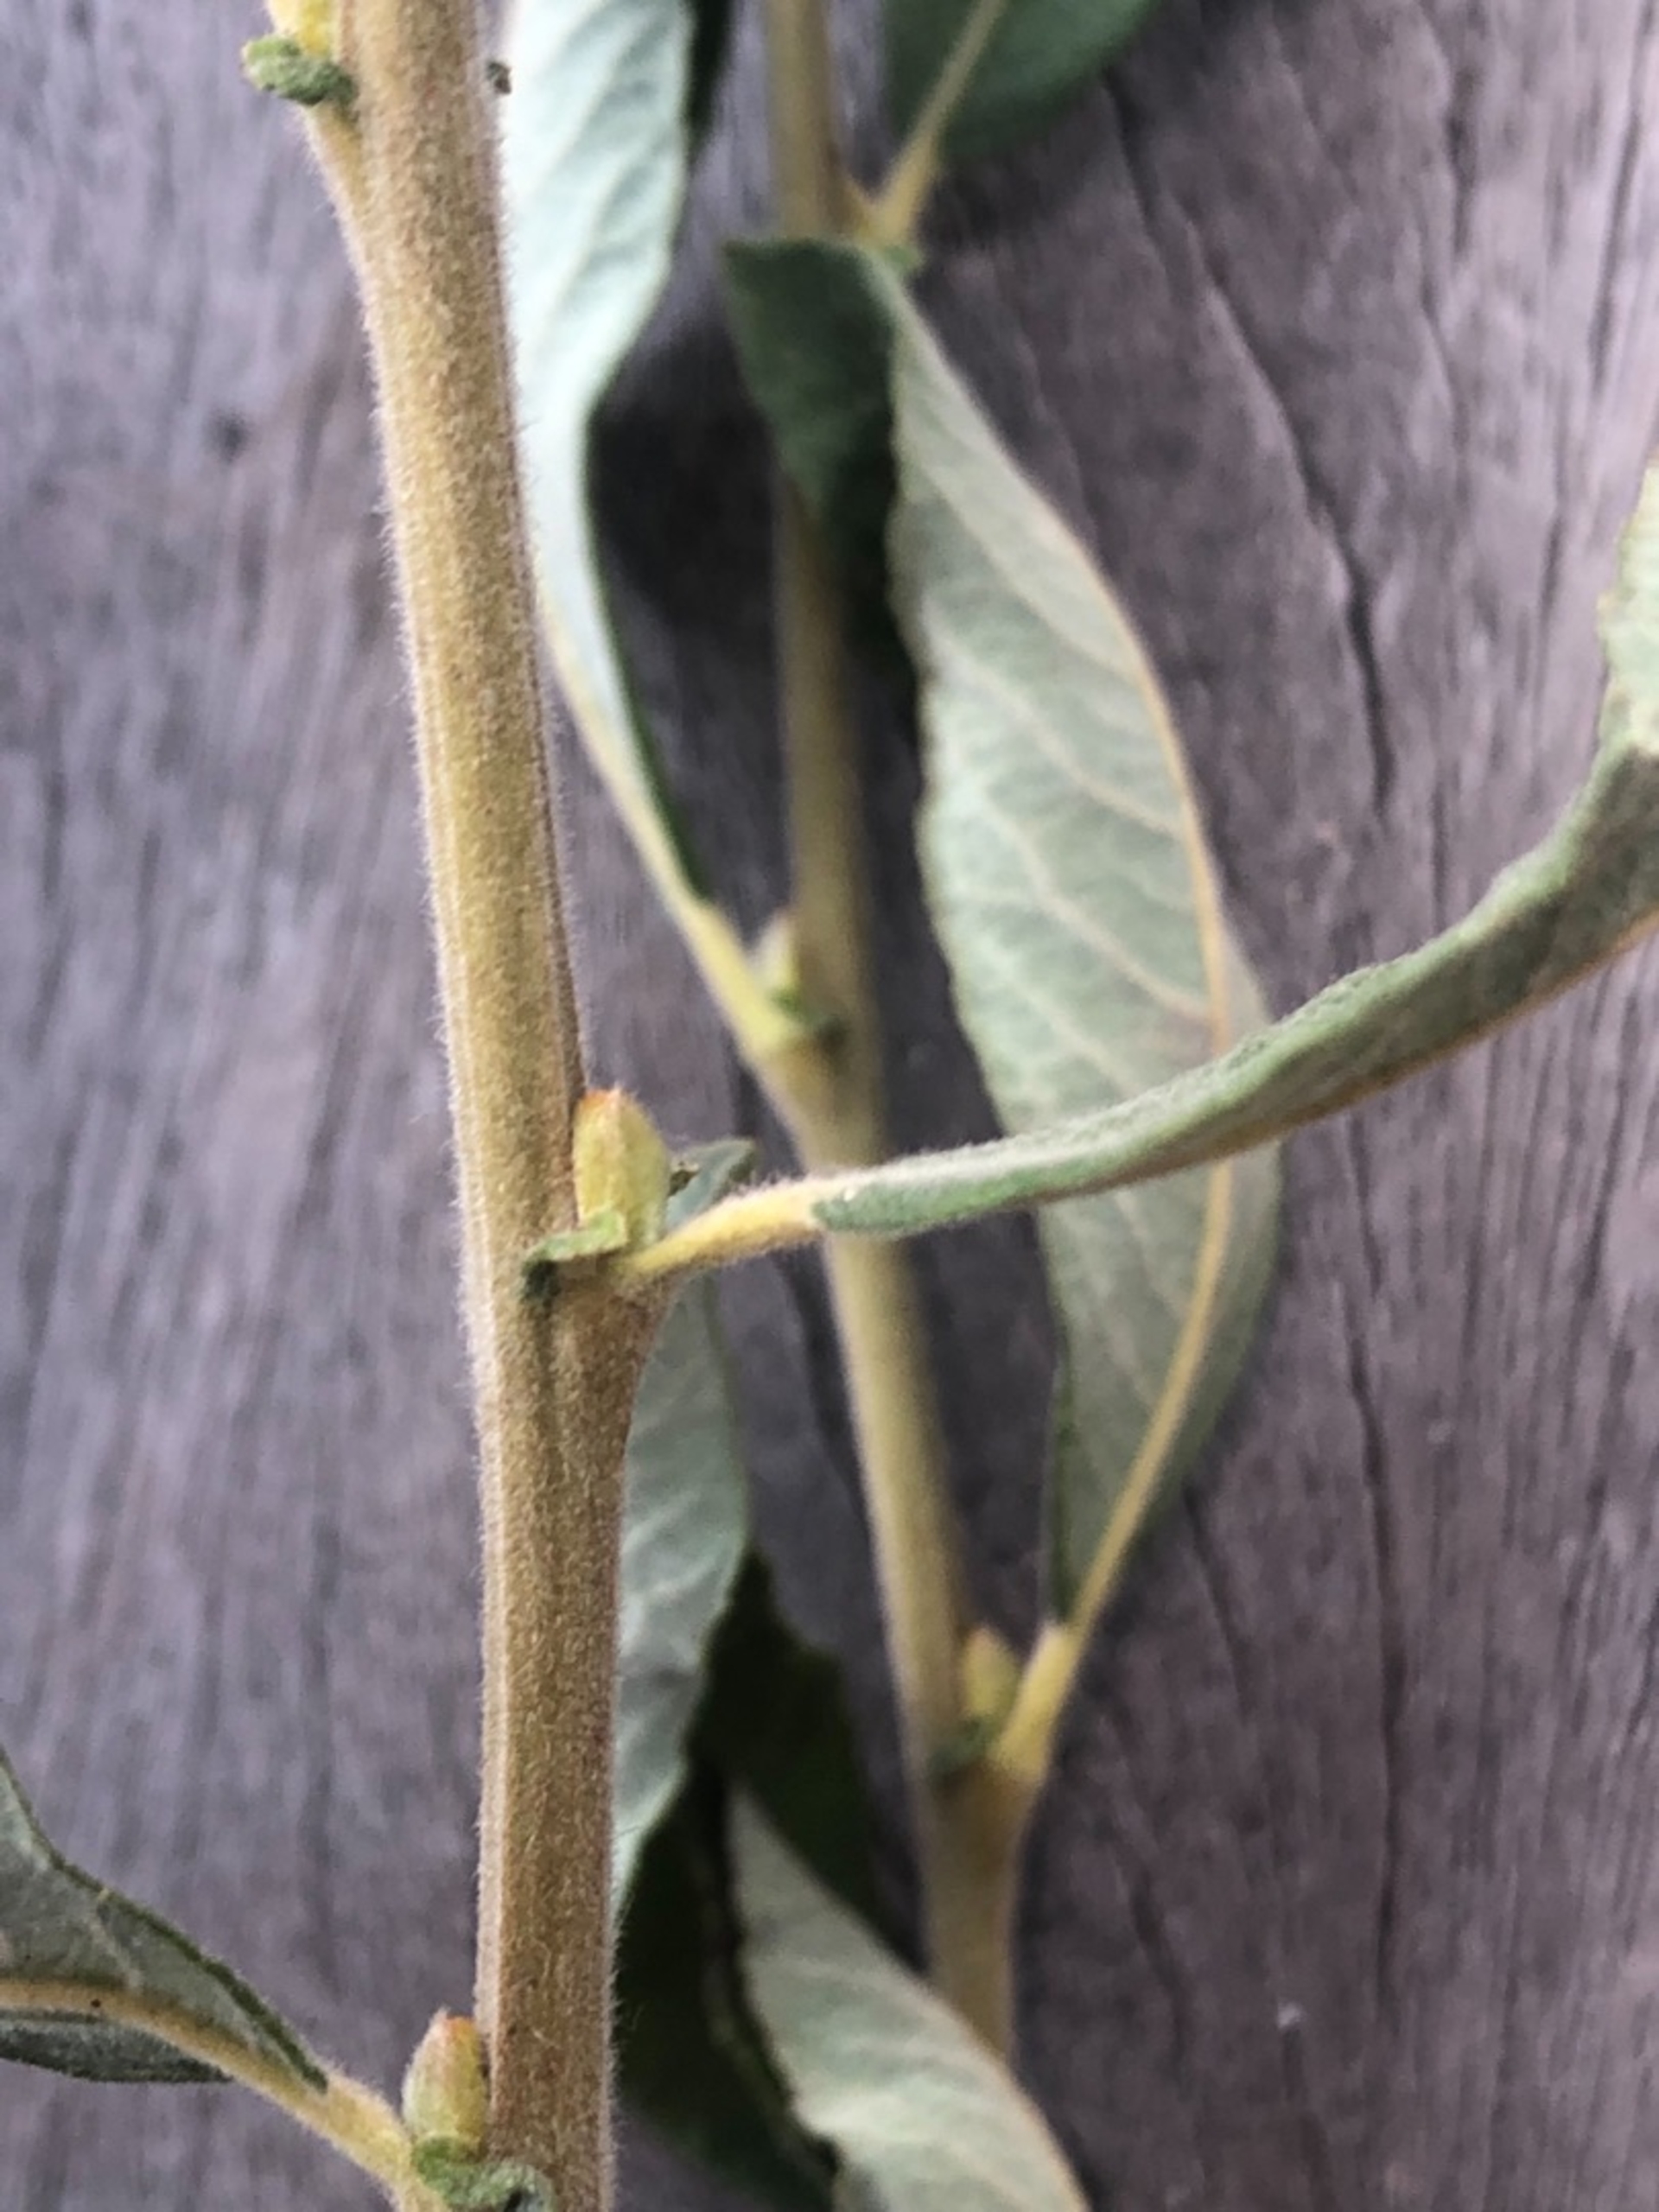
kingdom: Plantae
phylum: Tracheophyta
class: Magnoliopsida
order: Malpighiales
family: Salicaceae
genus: Salix
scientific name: Salix cinerea
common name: Grå-pil
